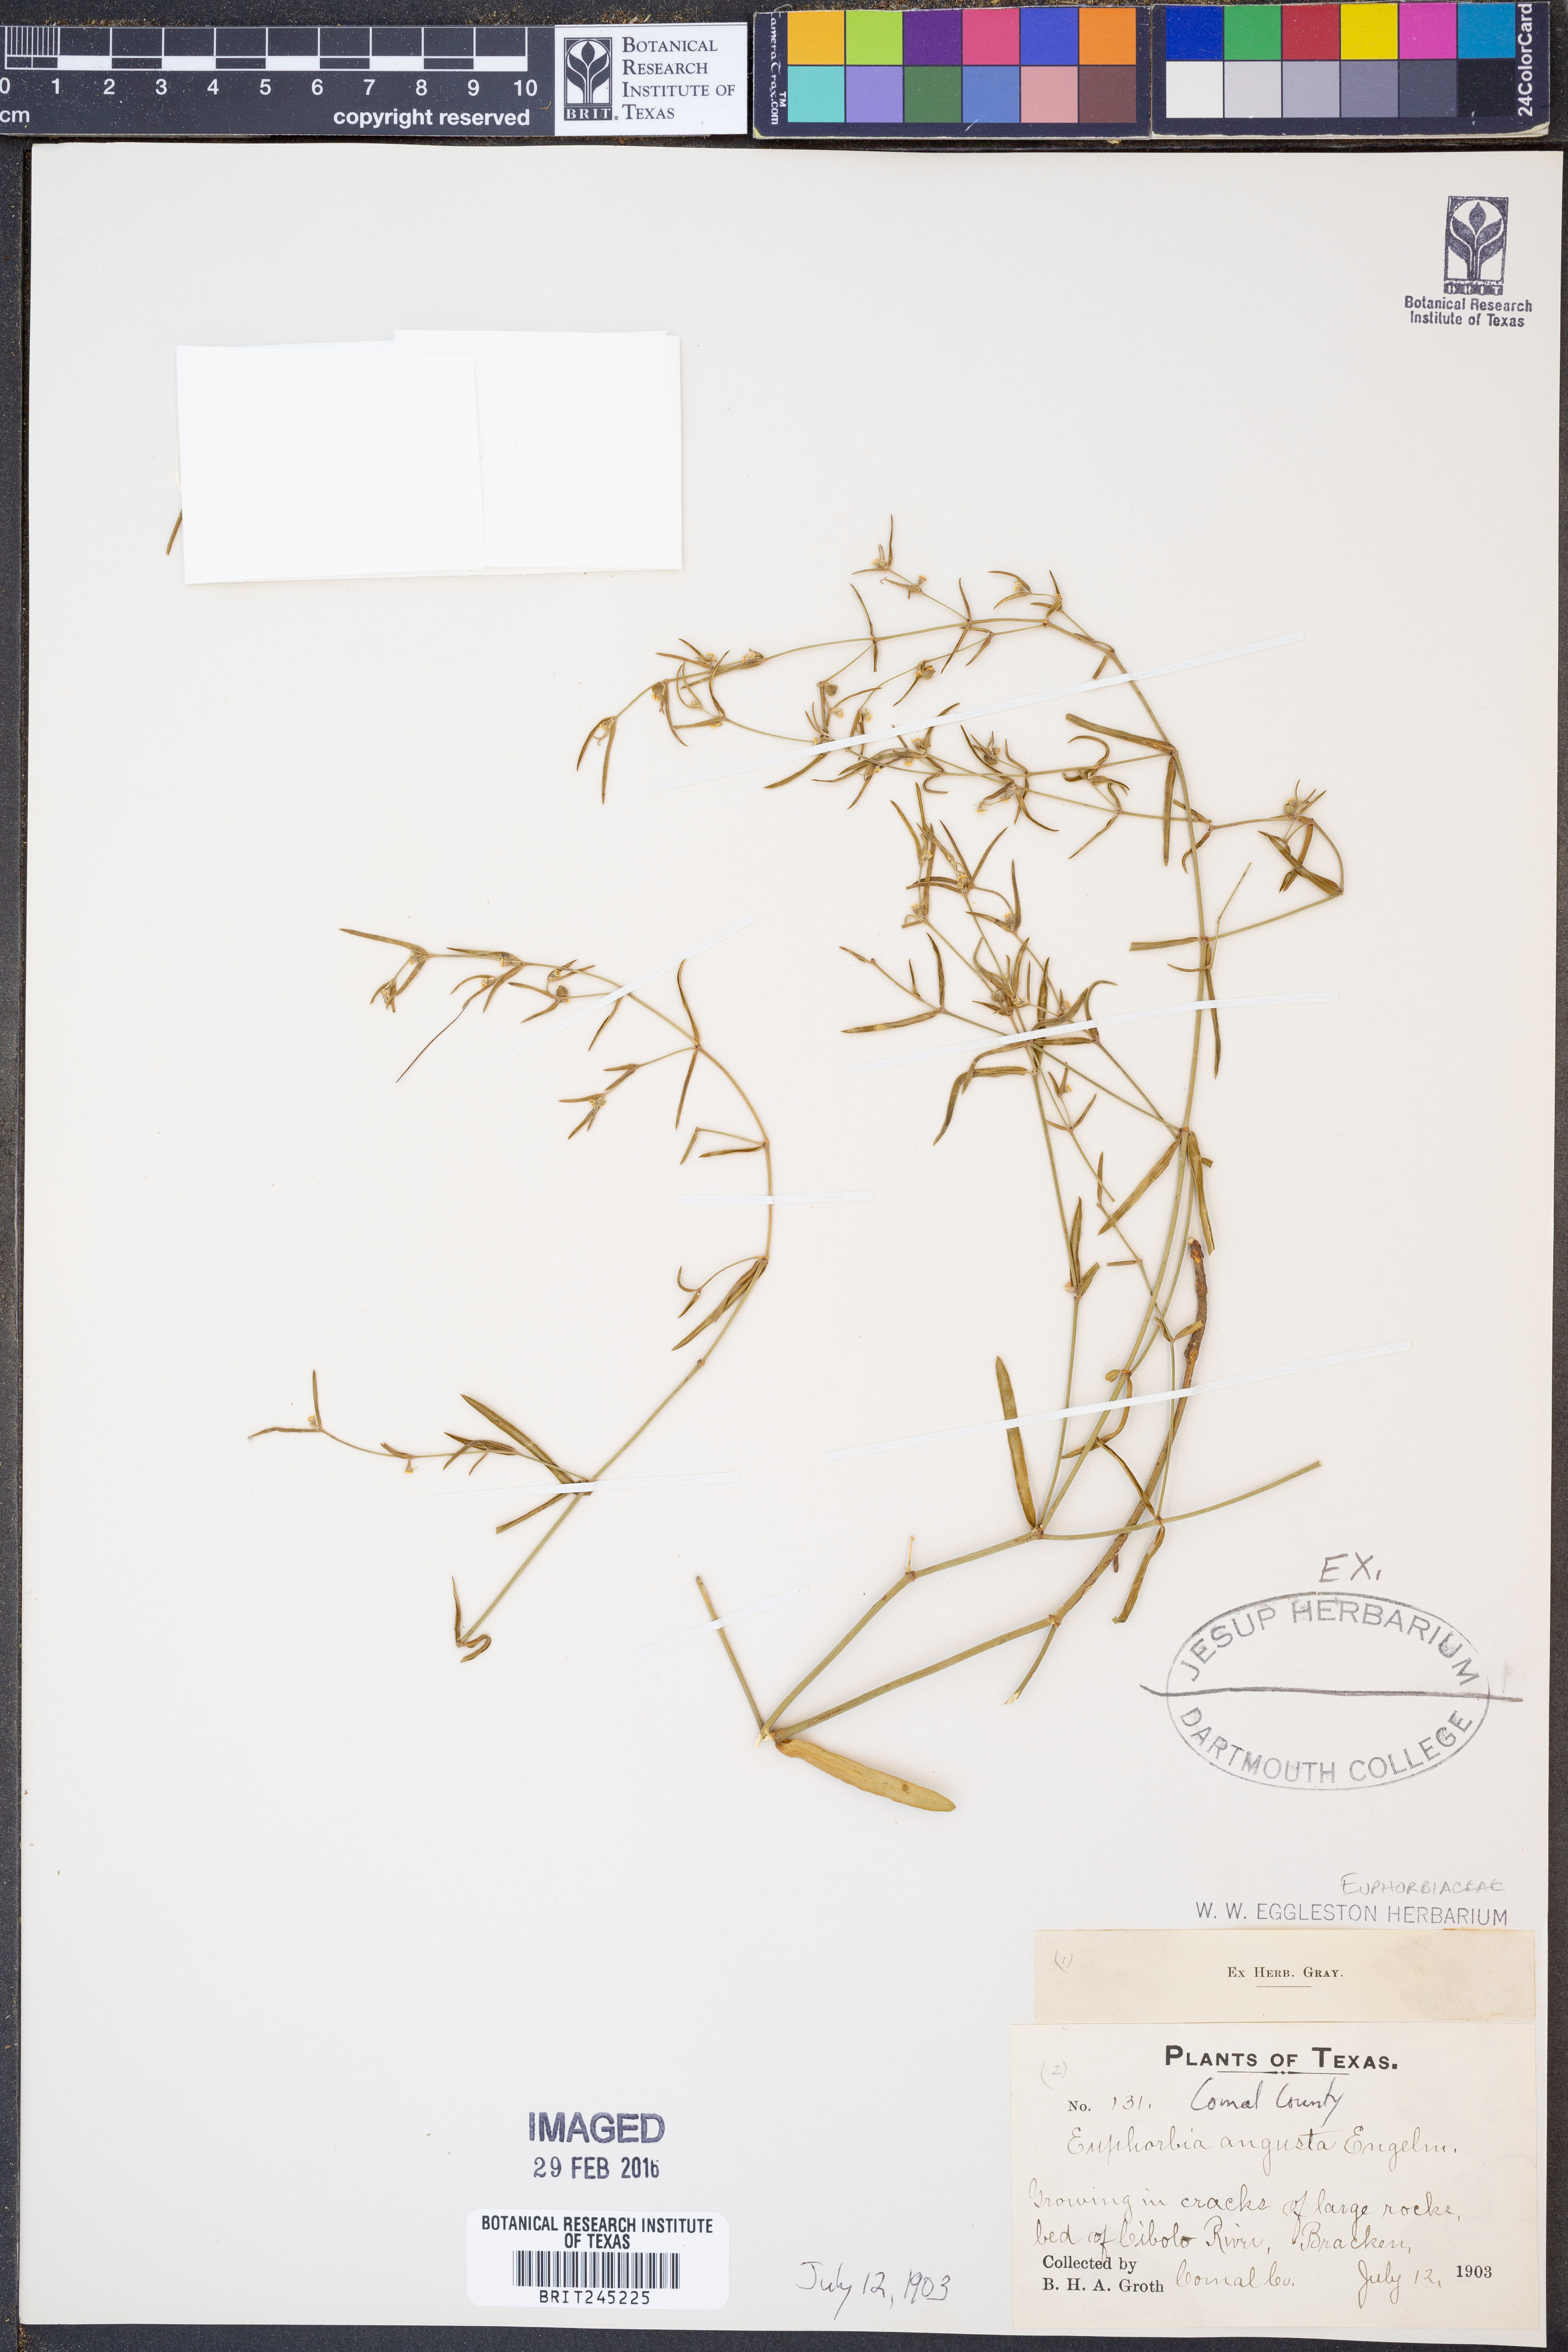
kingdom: Plantae
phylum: Tracheophyta
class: Magnoliopsida
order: Malpighiales
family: Euphorbiaceae
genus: Euphorbia
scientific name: Euphorbia angusta
